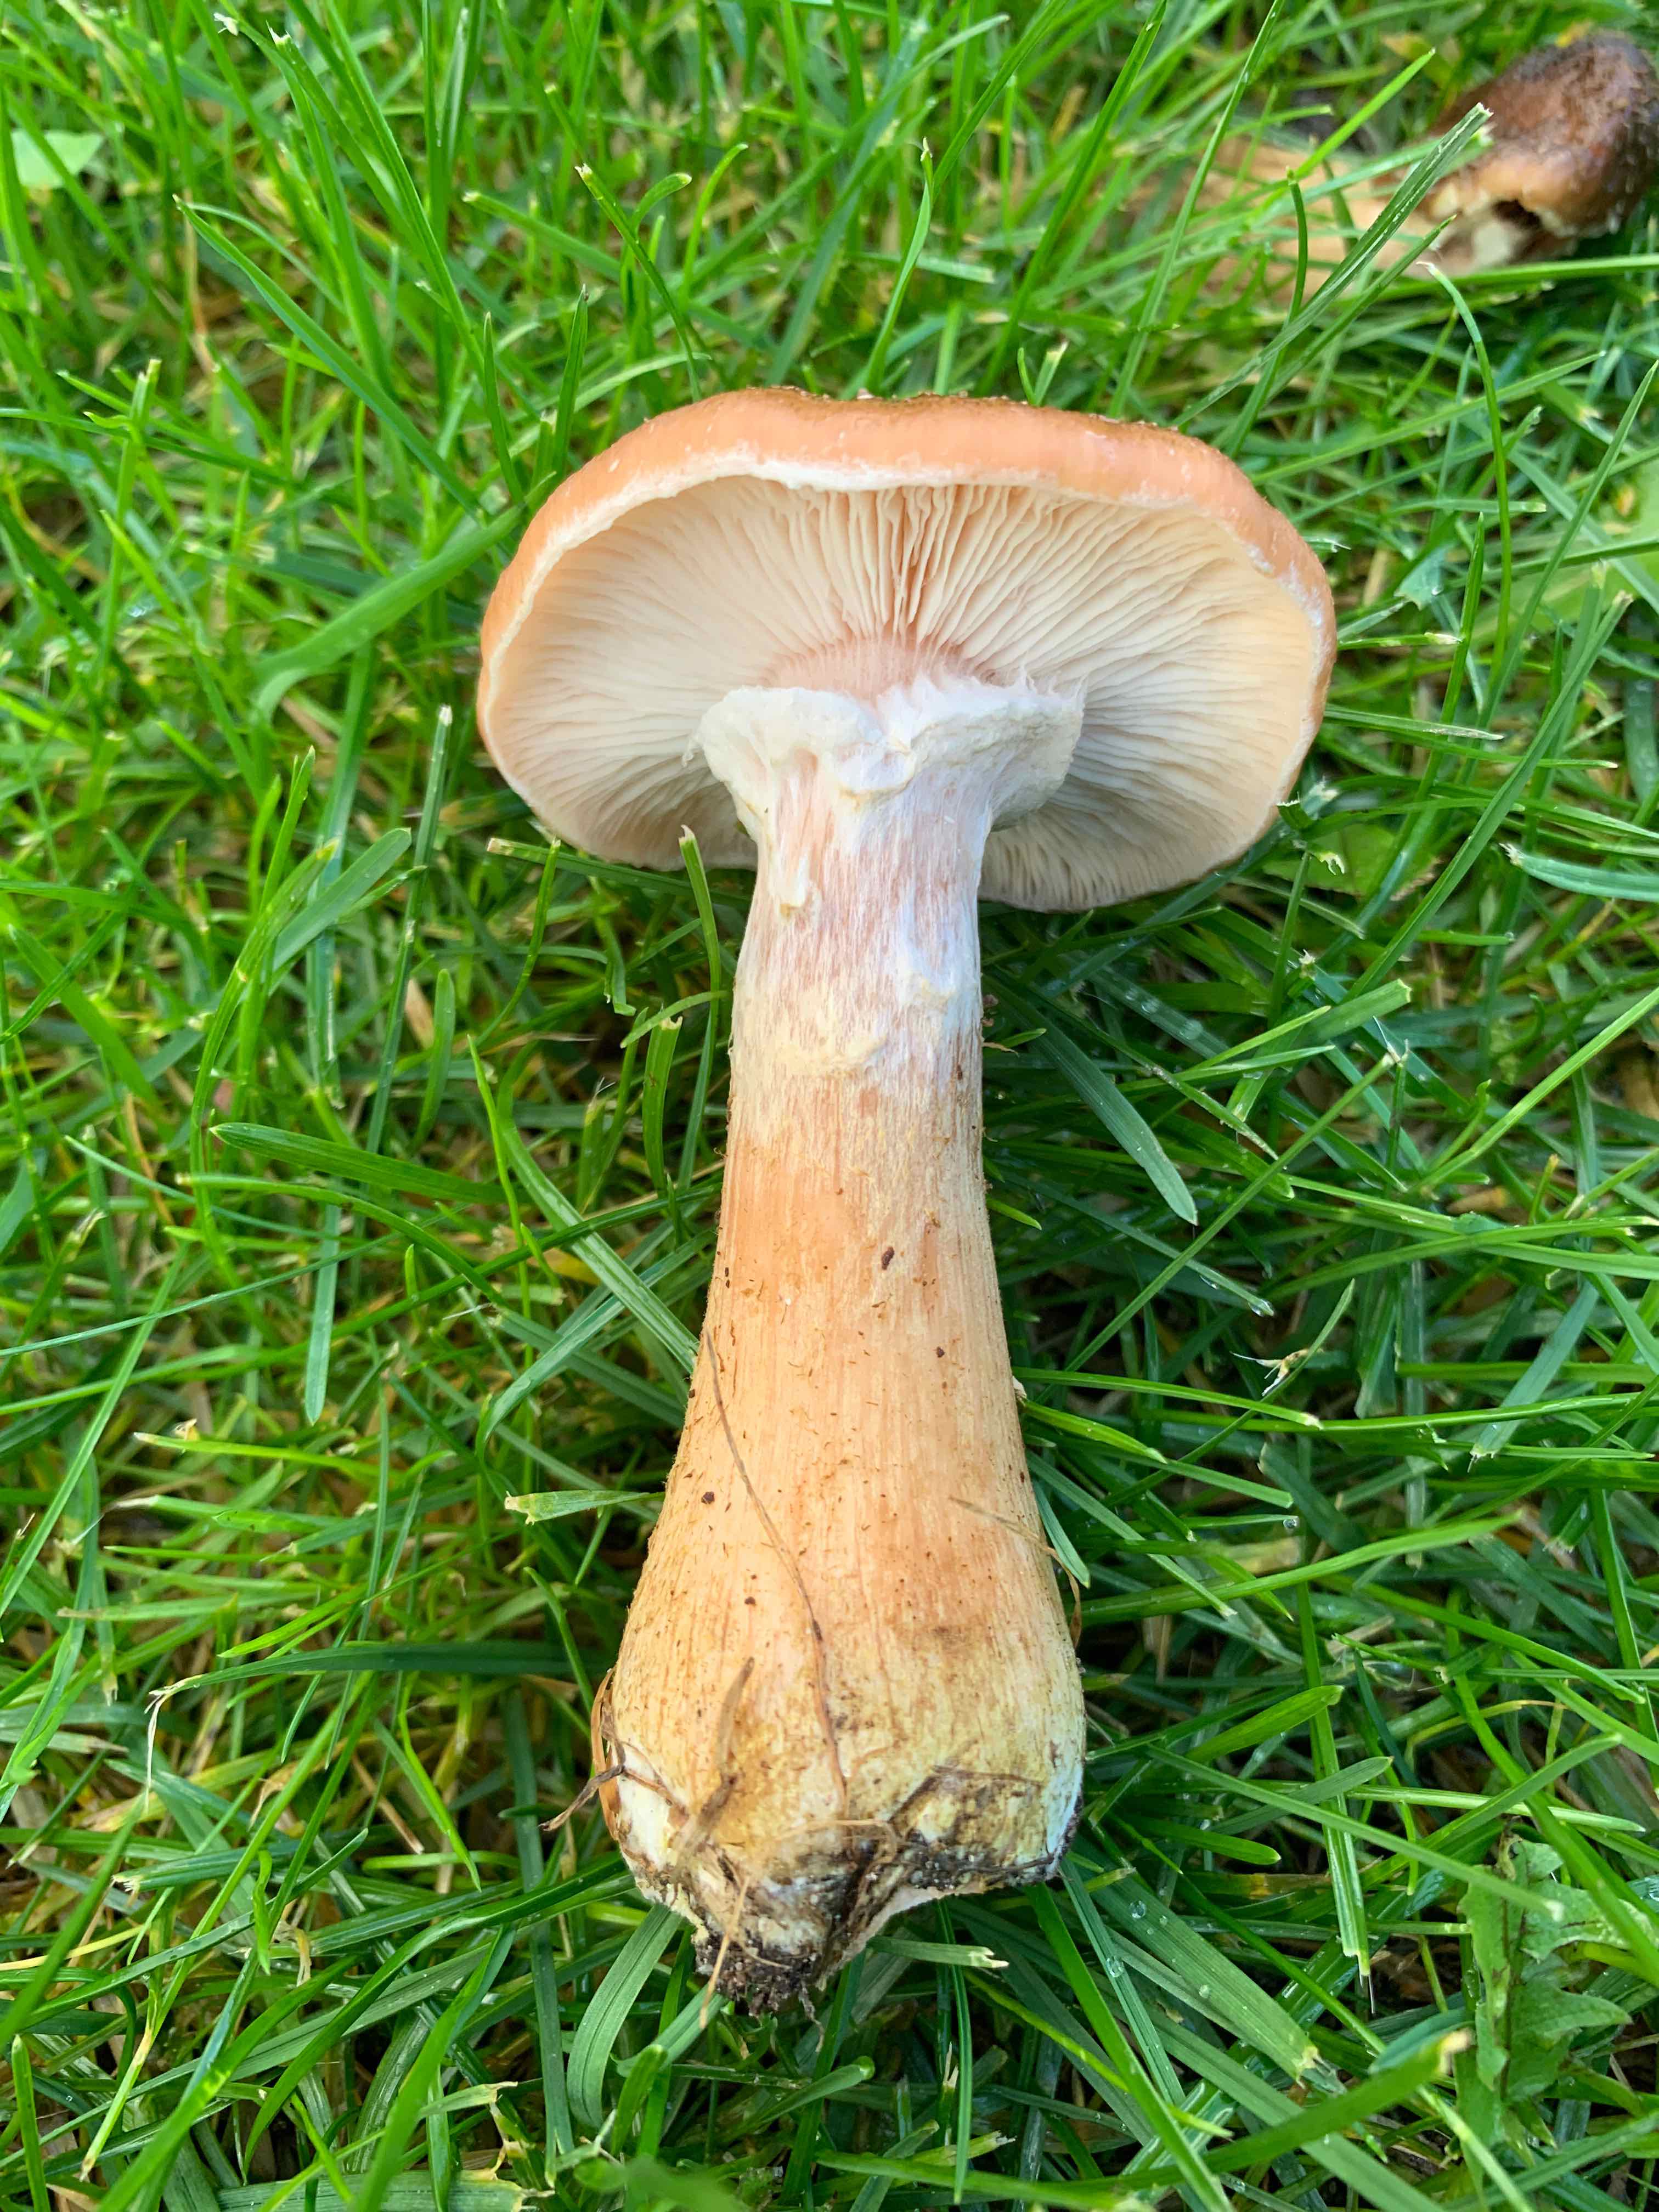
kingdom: Fungi
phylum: Basidiomycota
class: Agaricomycetes
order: Agaricales
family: Physalacriaceae
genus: Armillaria
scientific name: Armillaria lutea
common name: køllestokket honningsvamp
